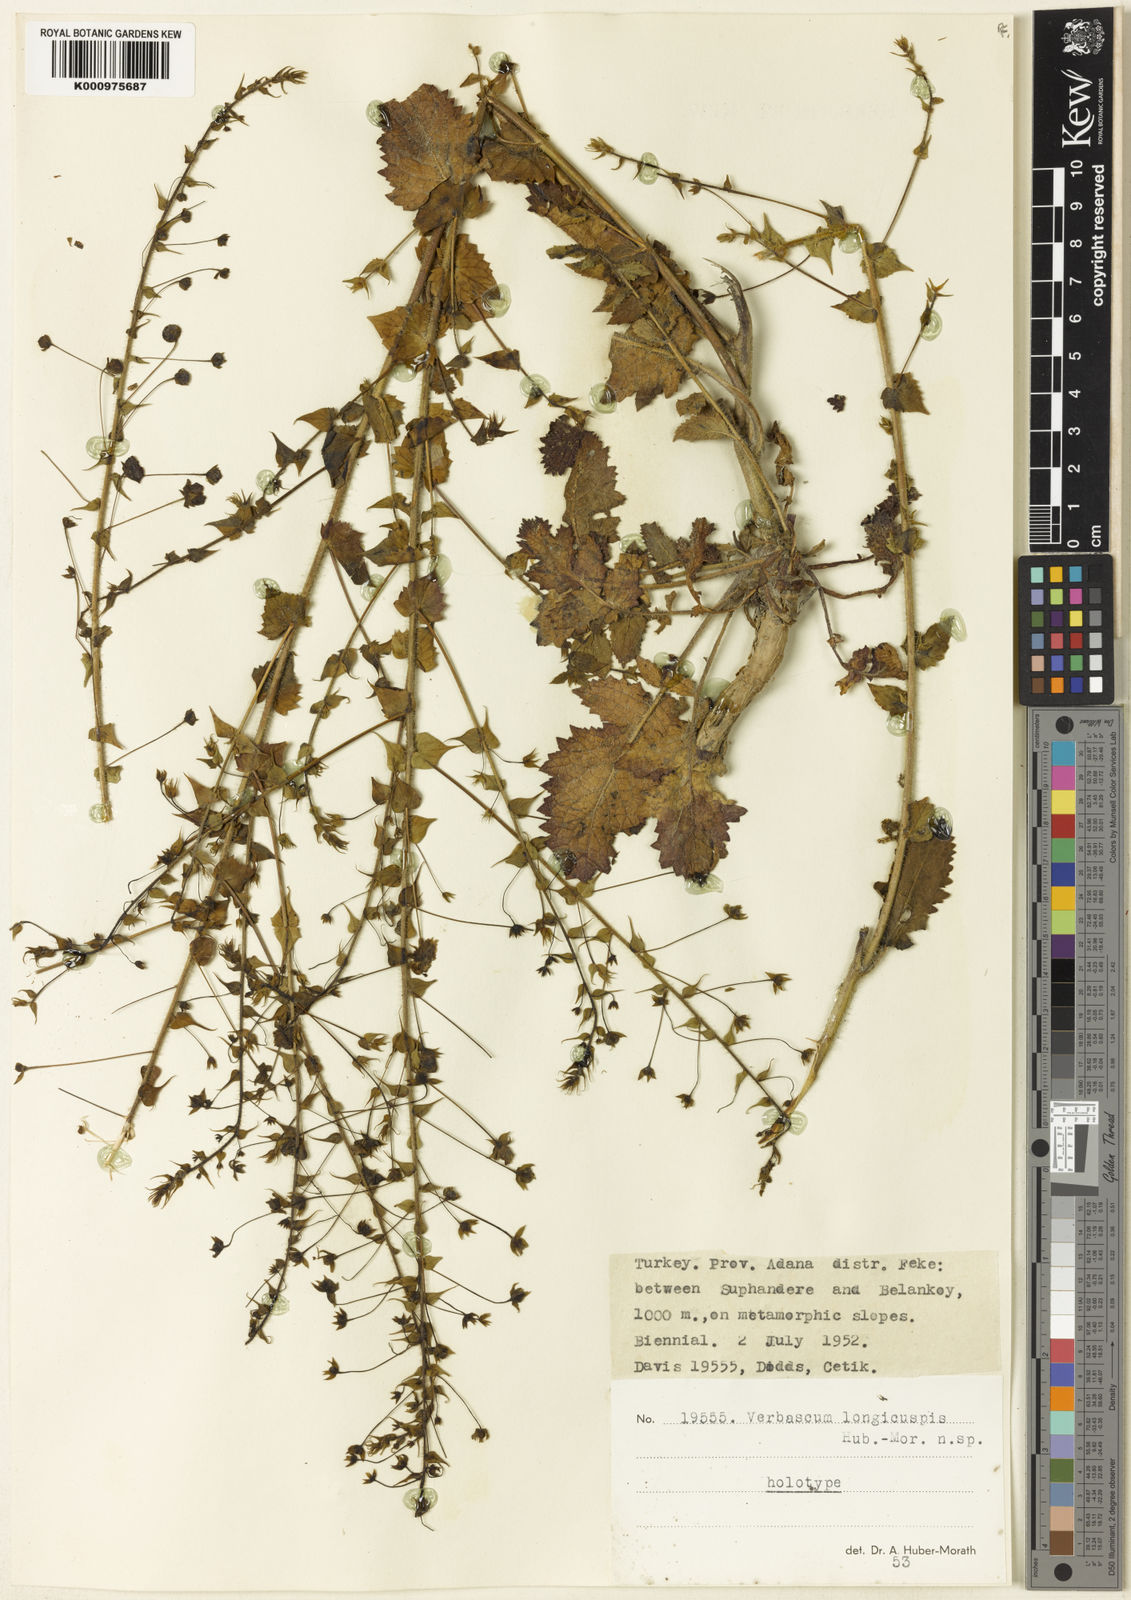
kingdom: Plantae
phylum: Tracheophyta
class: Magnoliopsida
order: Lamiales
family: Scrophulariaceae
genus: Verbascum
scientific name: Verbascum
